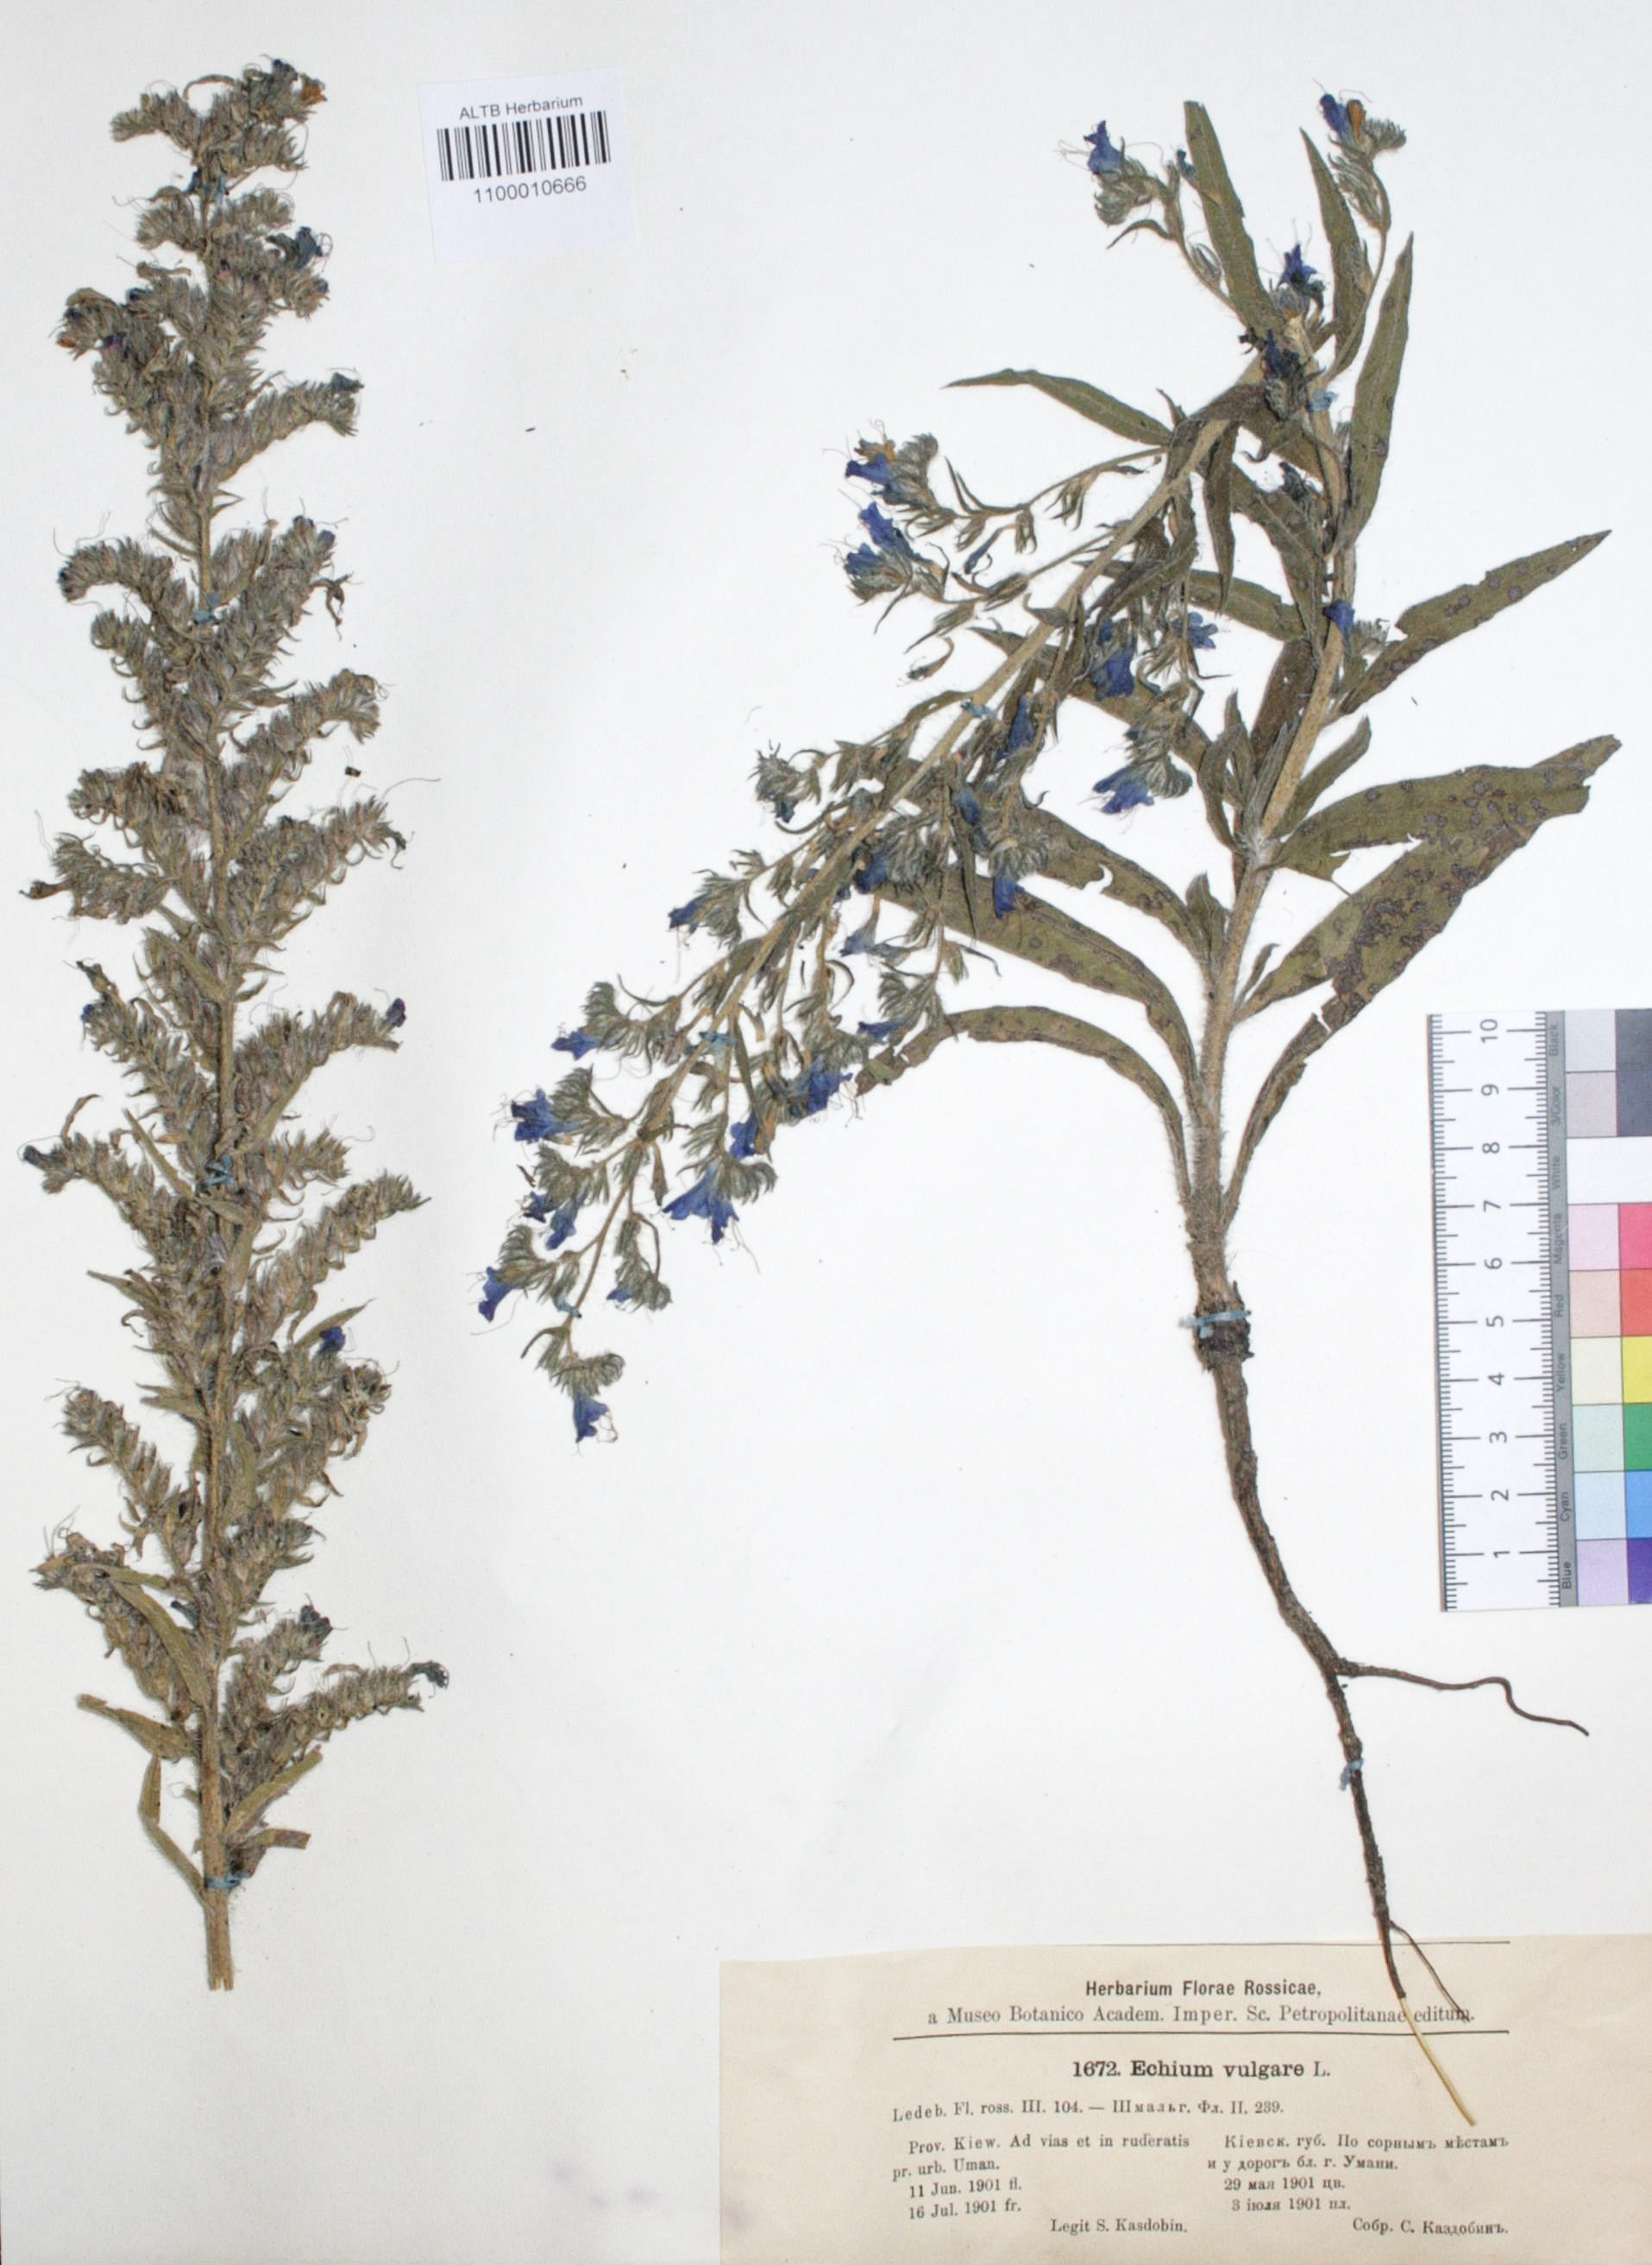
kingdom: Plantae
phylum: Tracheophyta
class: Magnoliopsida
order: Boraginales
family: Boraginaceae
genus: Echium
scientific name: Echium vulgare
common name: Common viper's bugloss
